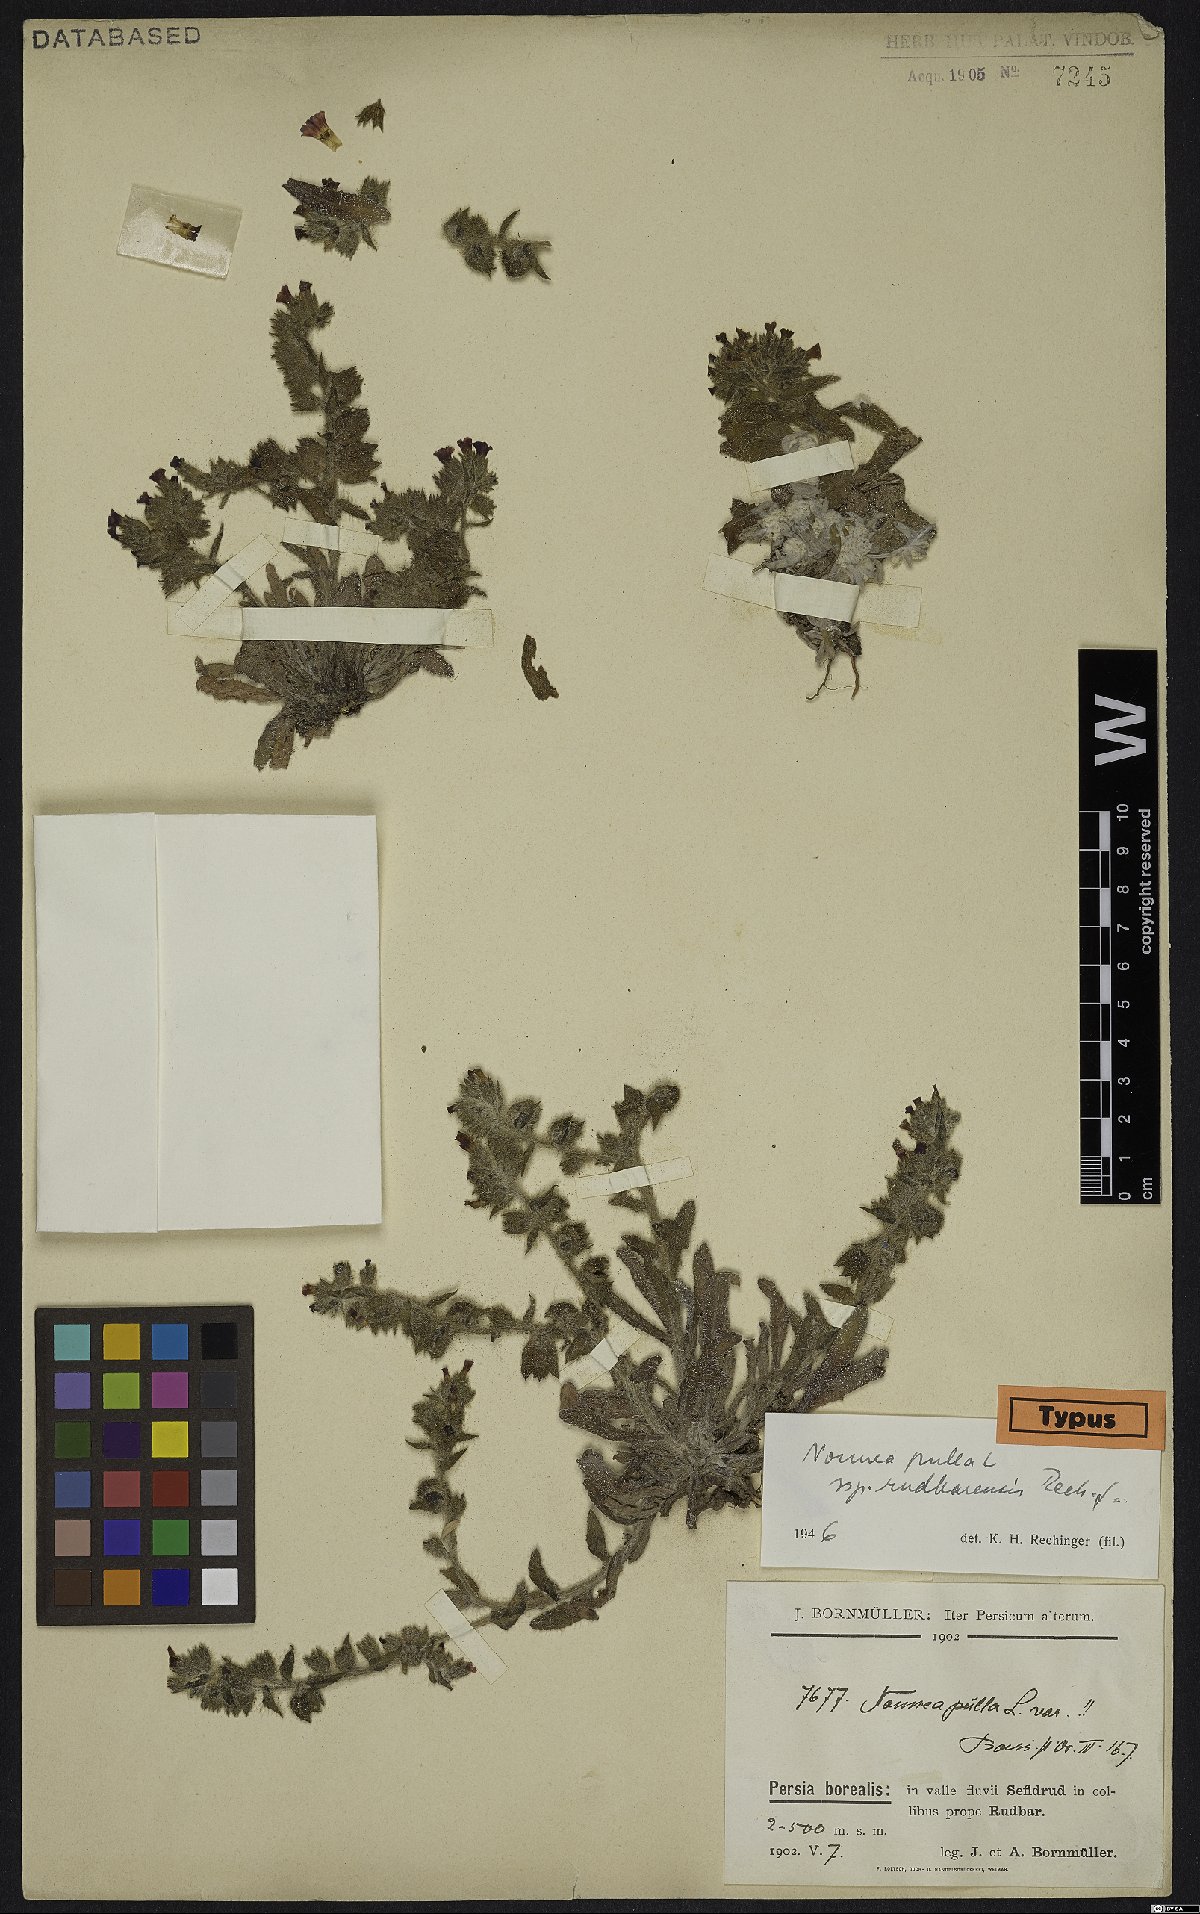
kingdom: Plantae
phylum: Tracheophyta
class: Magnoliopsida
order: Boraginales
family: Boraginaceae
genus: Nonea
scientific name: Nonea pulla
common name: Brown nonea
